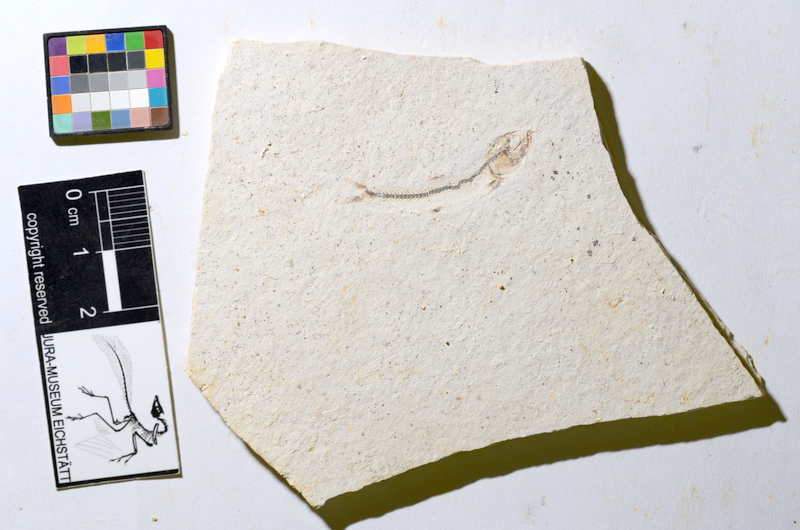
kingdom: Animalia
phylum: Chordata
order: Salmoniformes
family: Orthogonikleithridae
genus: Orthogonikleithrus
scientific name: Orthogonikleithrus hoelli
